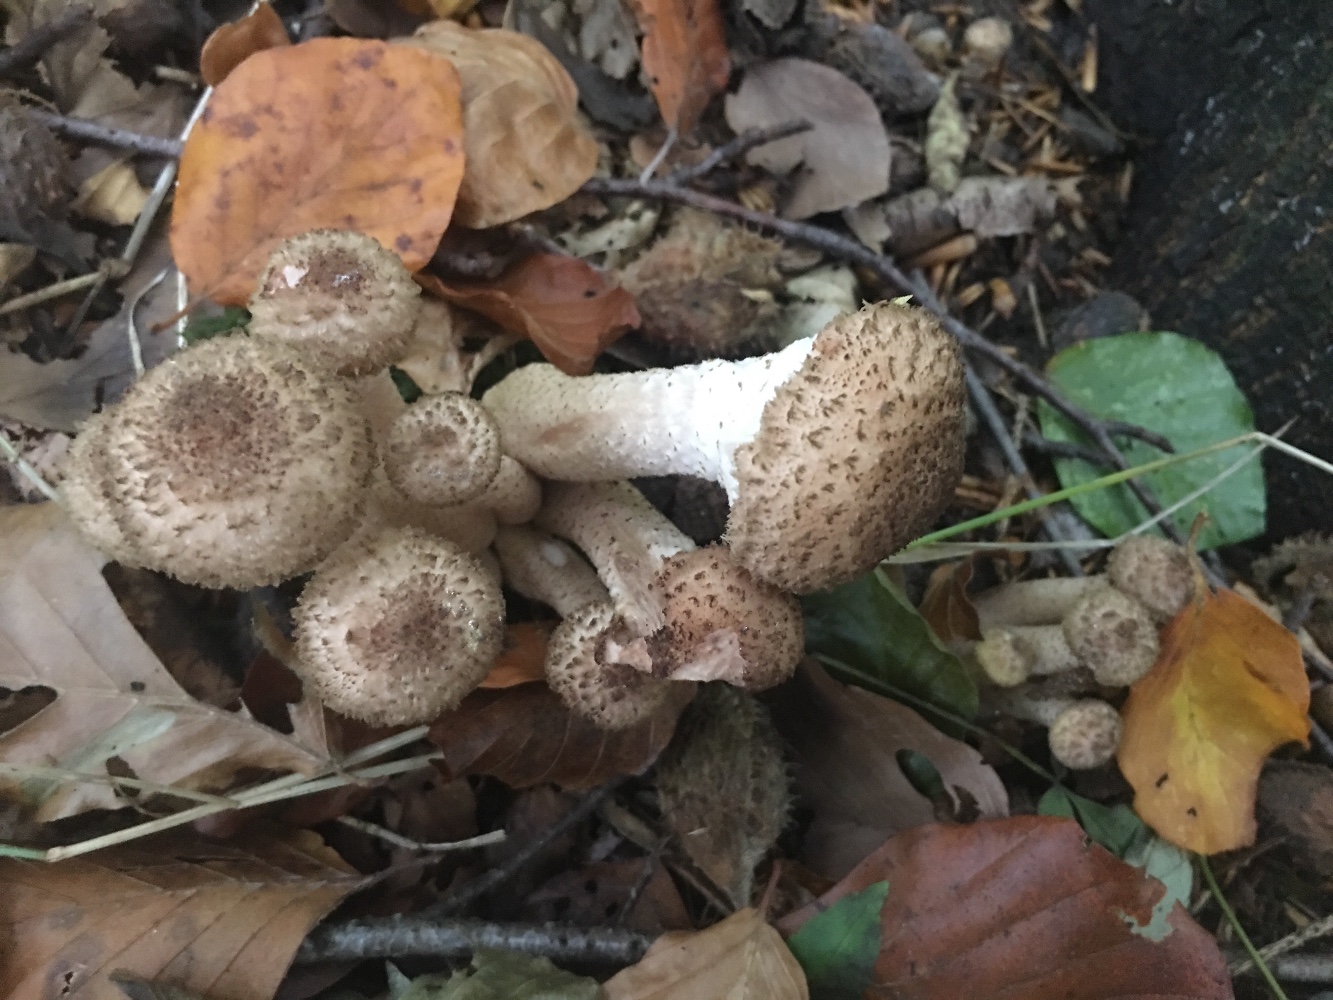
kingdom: Fungi
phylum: Basidiomycota
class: Agaricomycetes
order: Agaricales
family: Physalacriaceae
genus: Armillaria
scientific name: Armillaria ostoyae
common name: mørk honningsvamp
